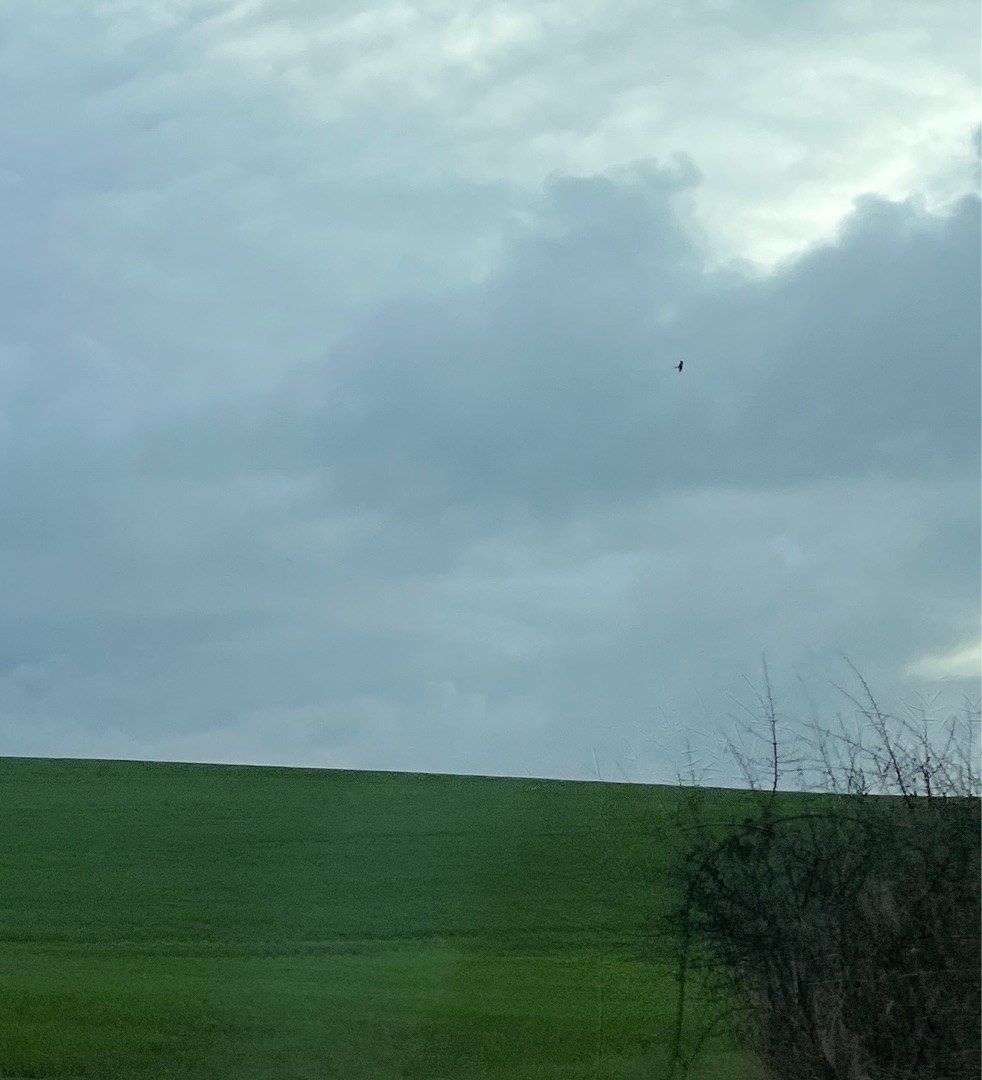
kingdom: Animalia
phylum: Chordata
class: Aves
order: Accipitriformes
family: Accipitridae
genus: Milvus
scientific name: Milvus milvus
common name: Rød glente
